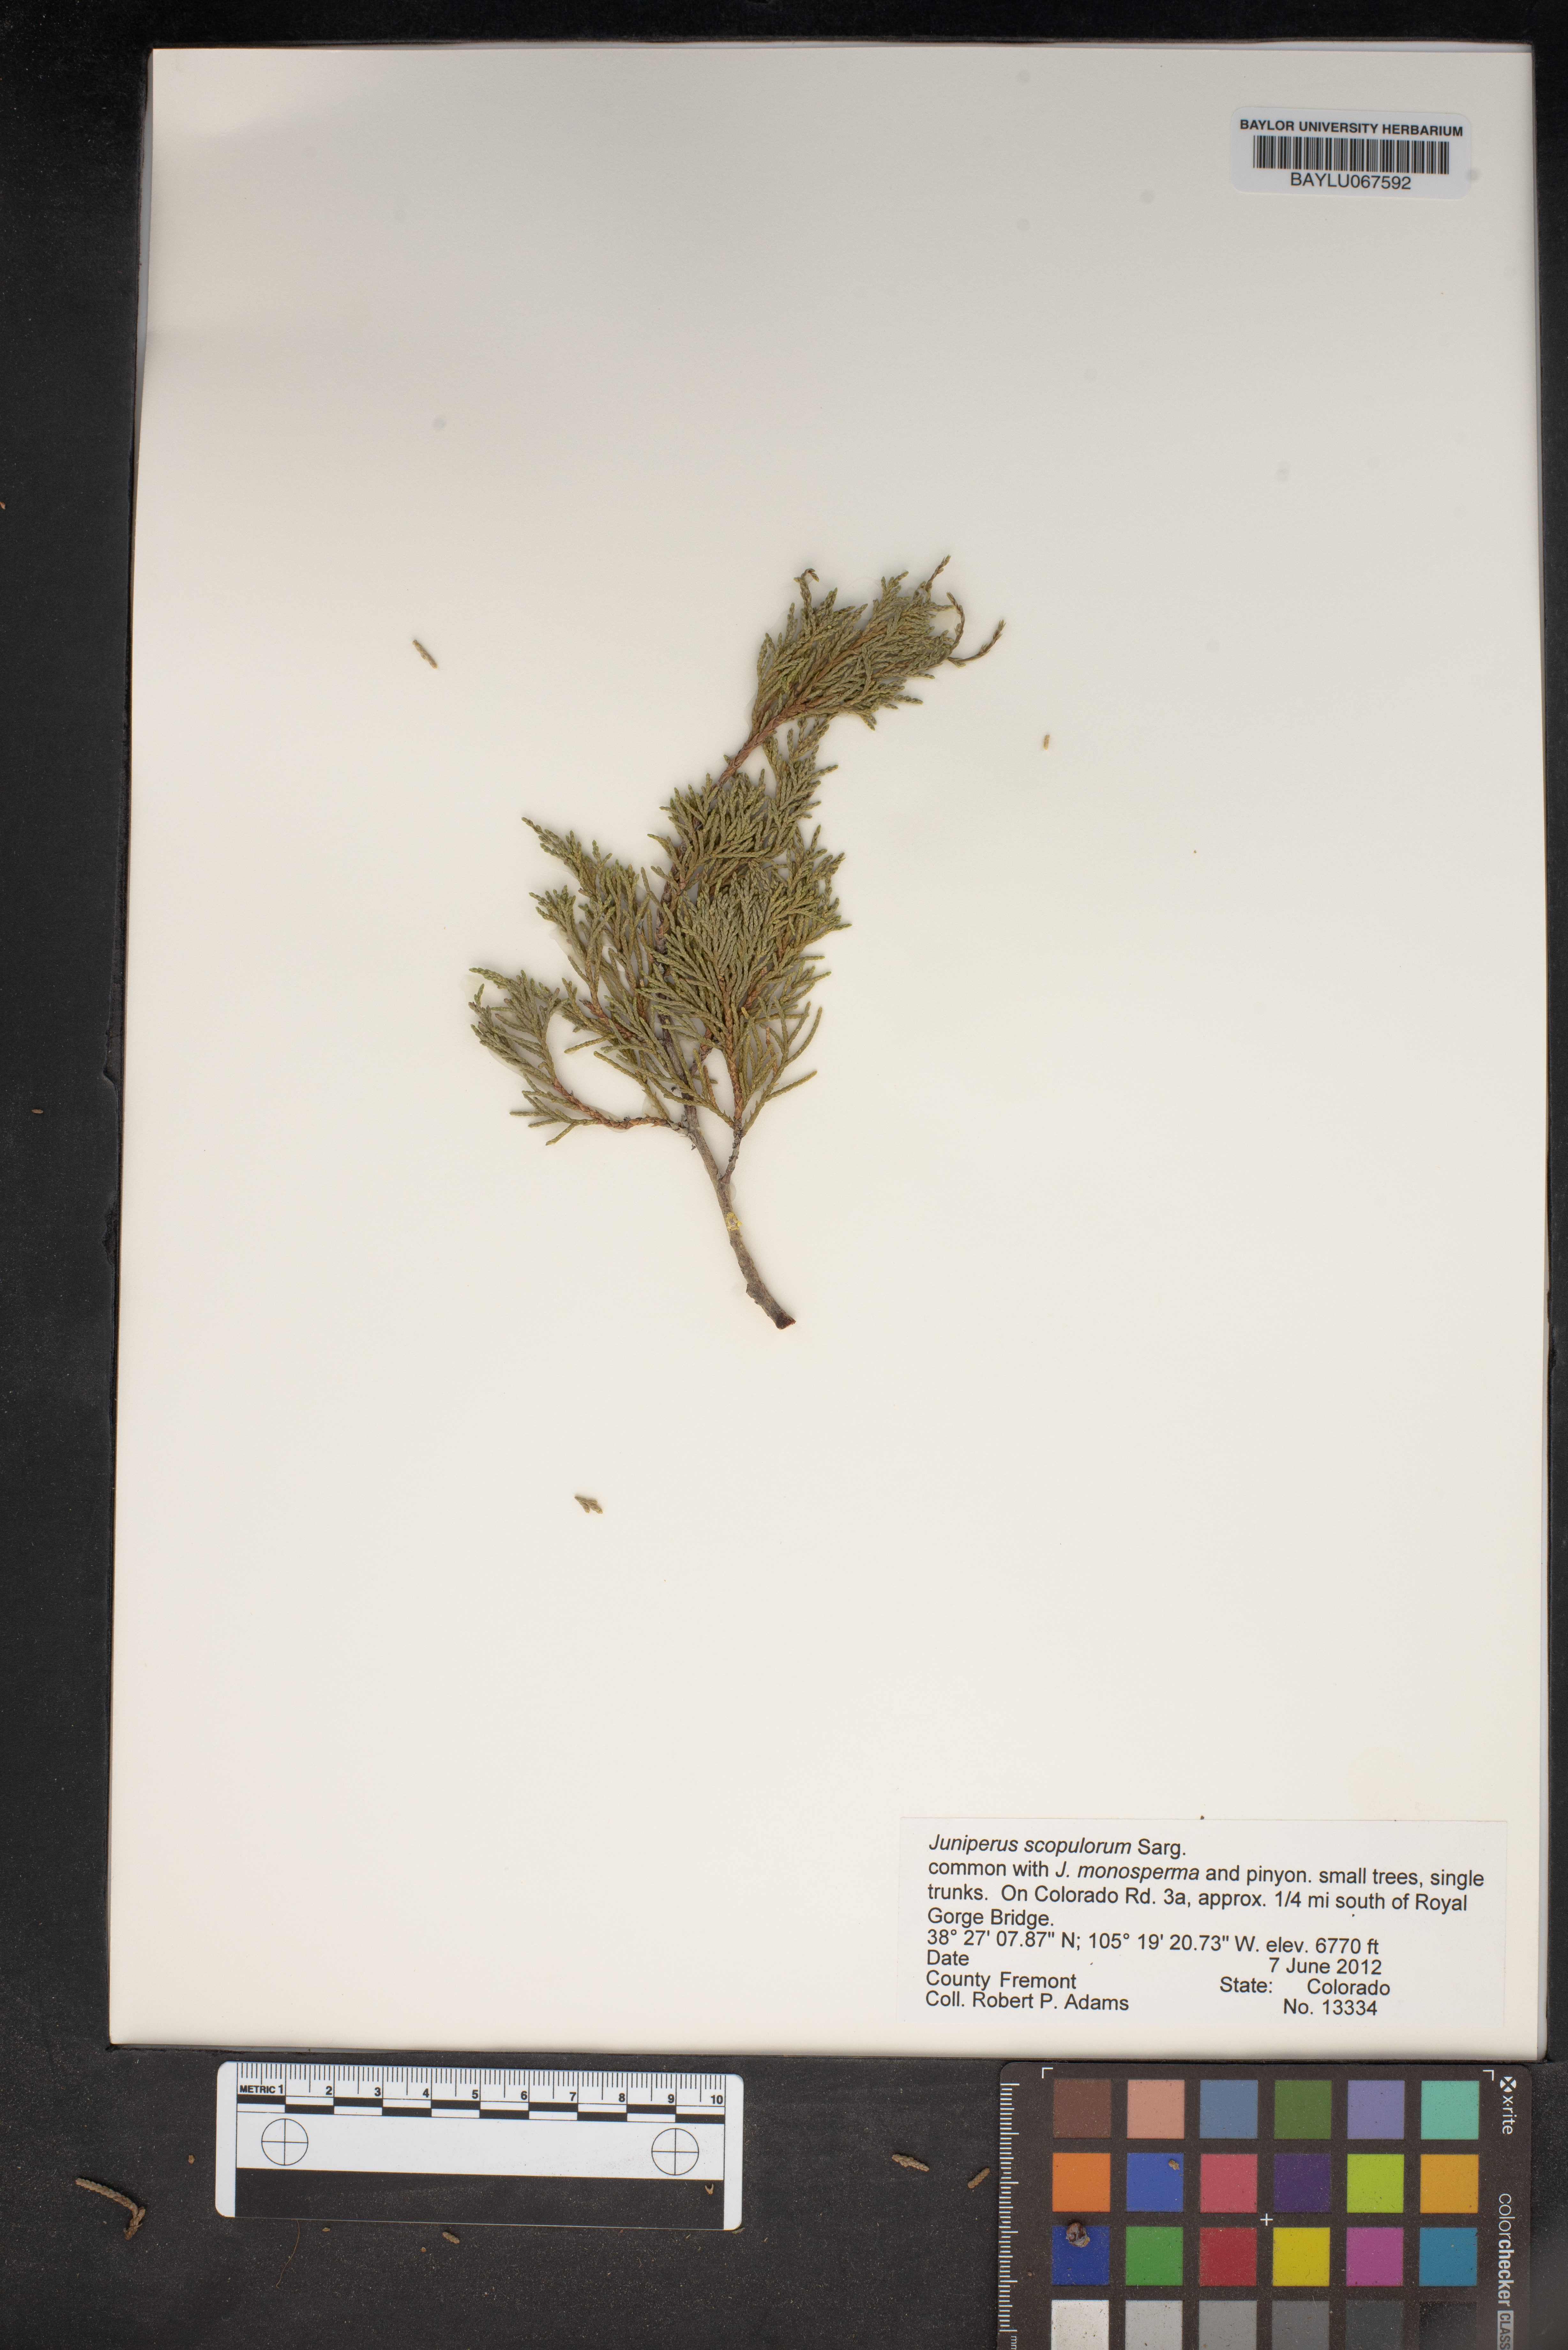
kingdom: Plantae
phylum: Tracheophyta
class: Pinopsida
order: Pinales
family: Cupressaceae
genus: Juniperus
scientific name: Juniperus scopulorum
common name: Rocky mountain juniper
